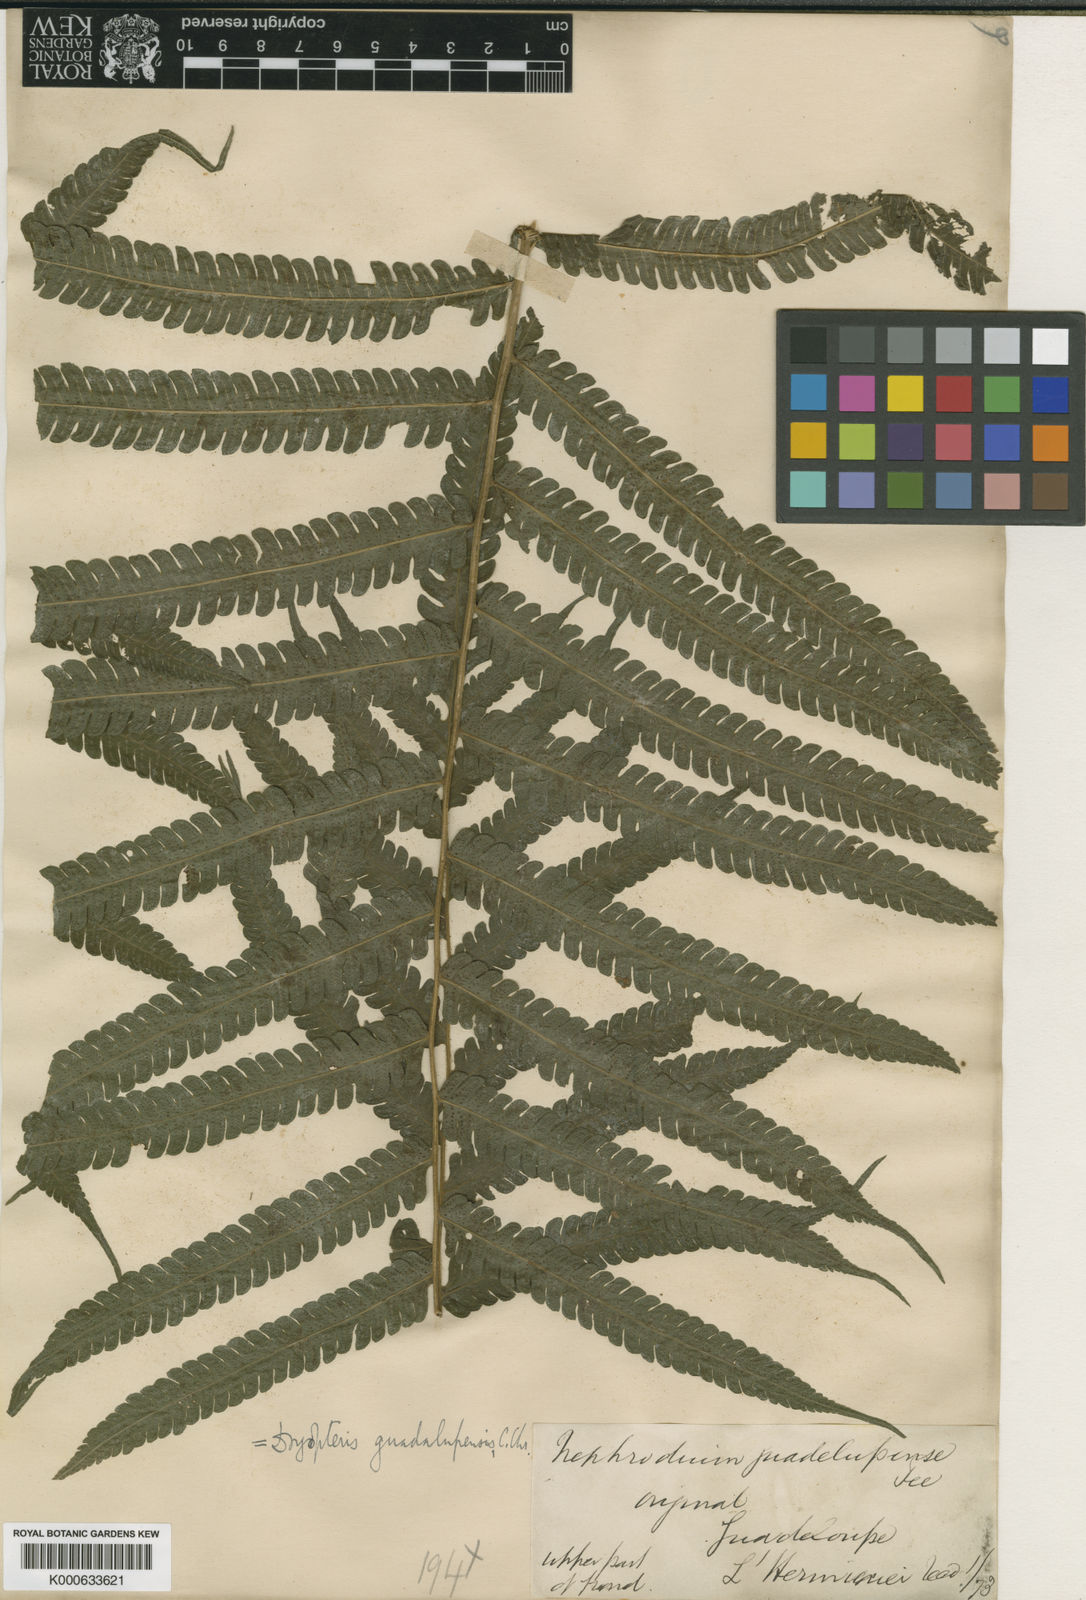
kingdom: Plantae
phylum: Tracheophyta
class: Polypodiopsida
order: Polypodiales
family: Thelypteridaceae
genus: Goniopteris
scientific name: Goniopteris
